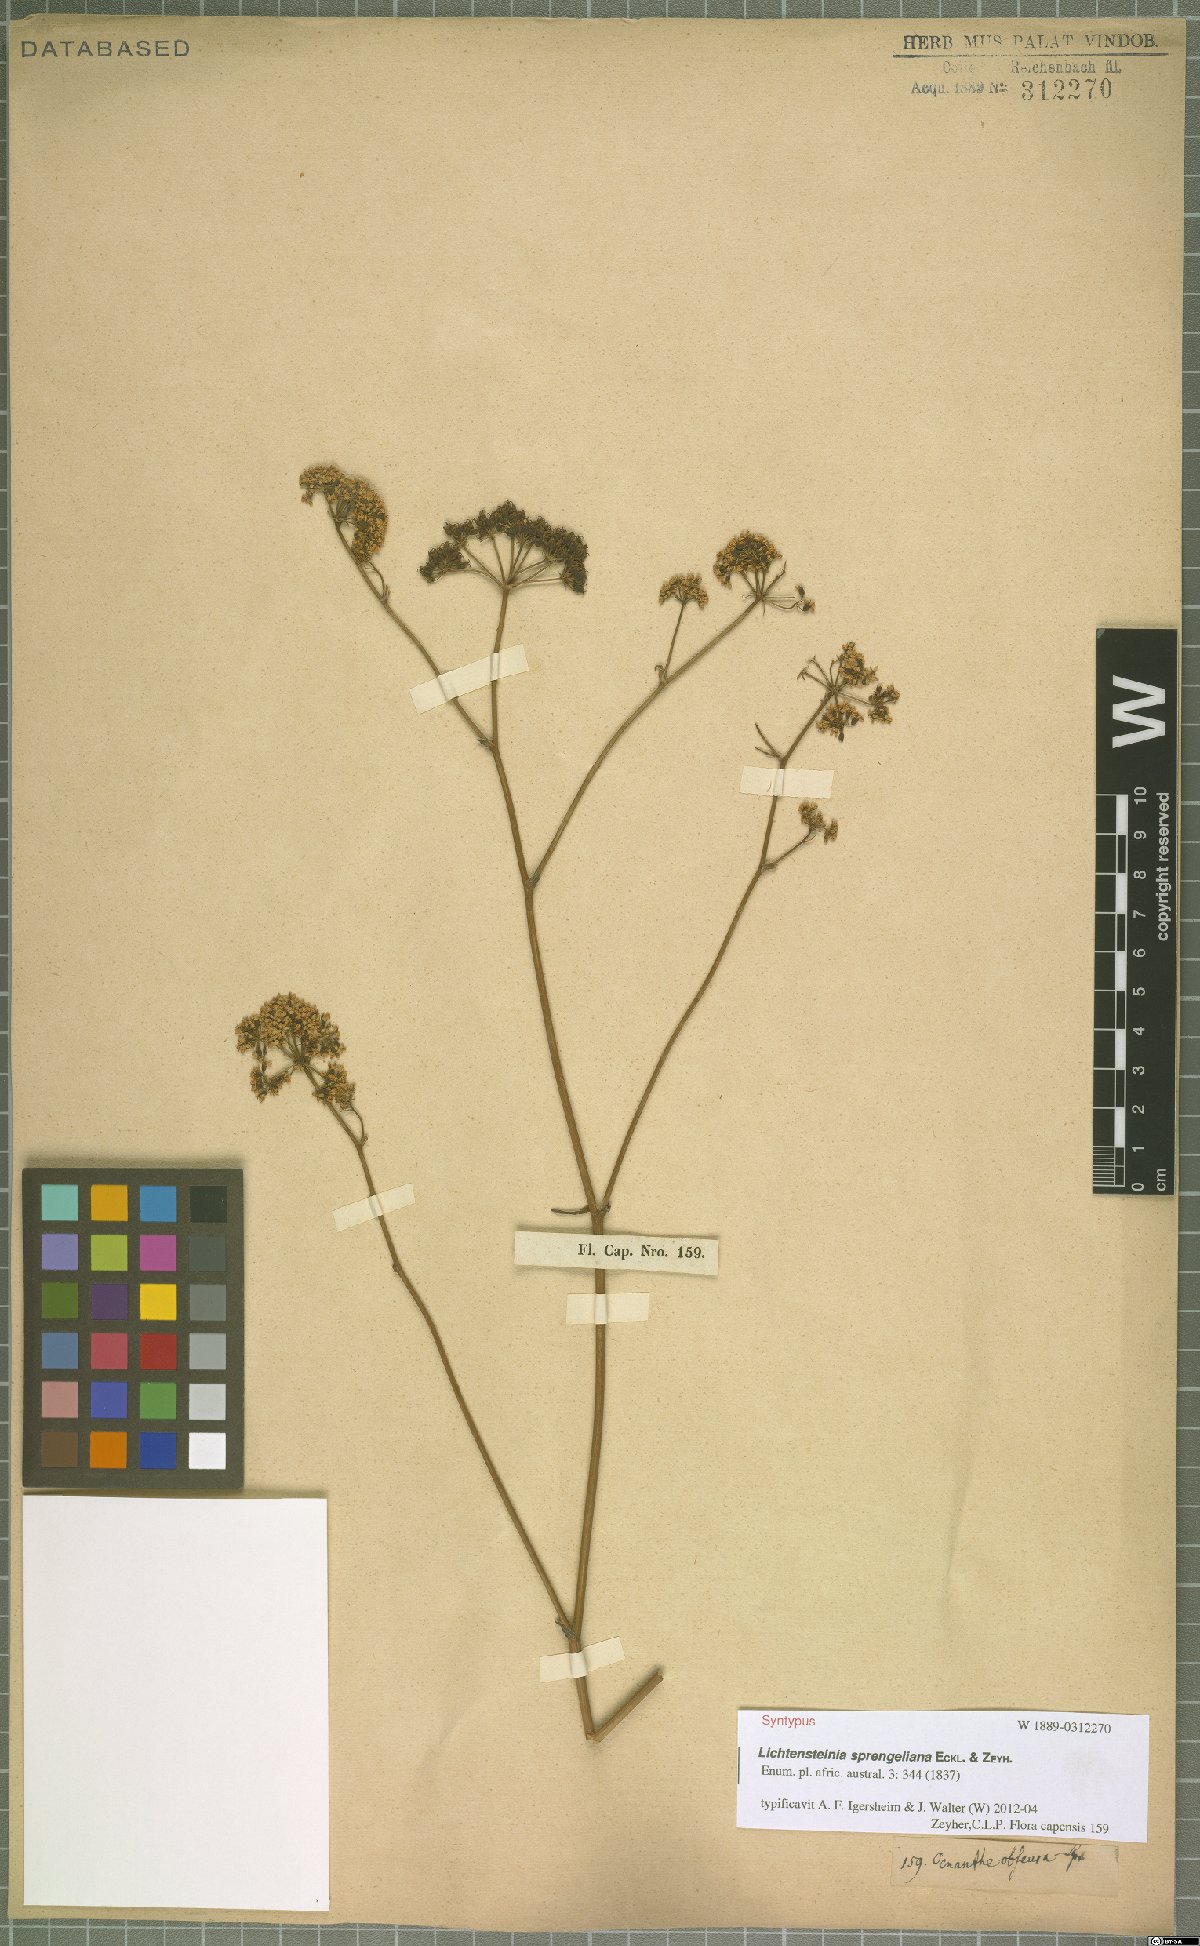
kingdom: Plantae
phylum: Tracheophyta
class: Magnoliopsida
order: Apiales
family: Apiaceae
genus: Lichtensteinia
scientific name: Lichtensteinia interrupta
